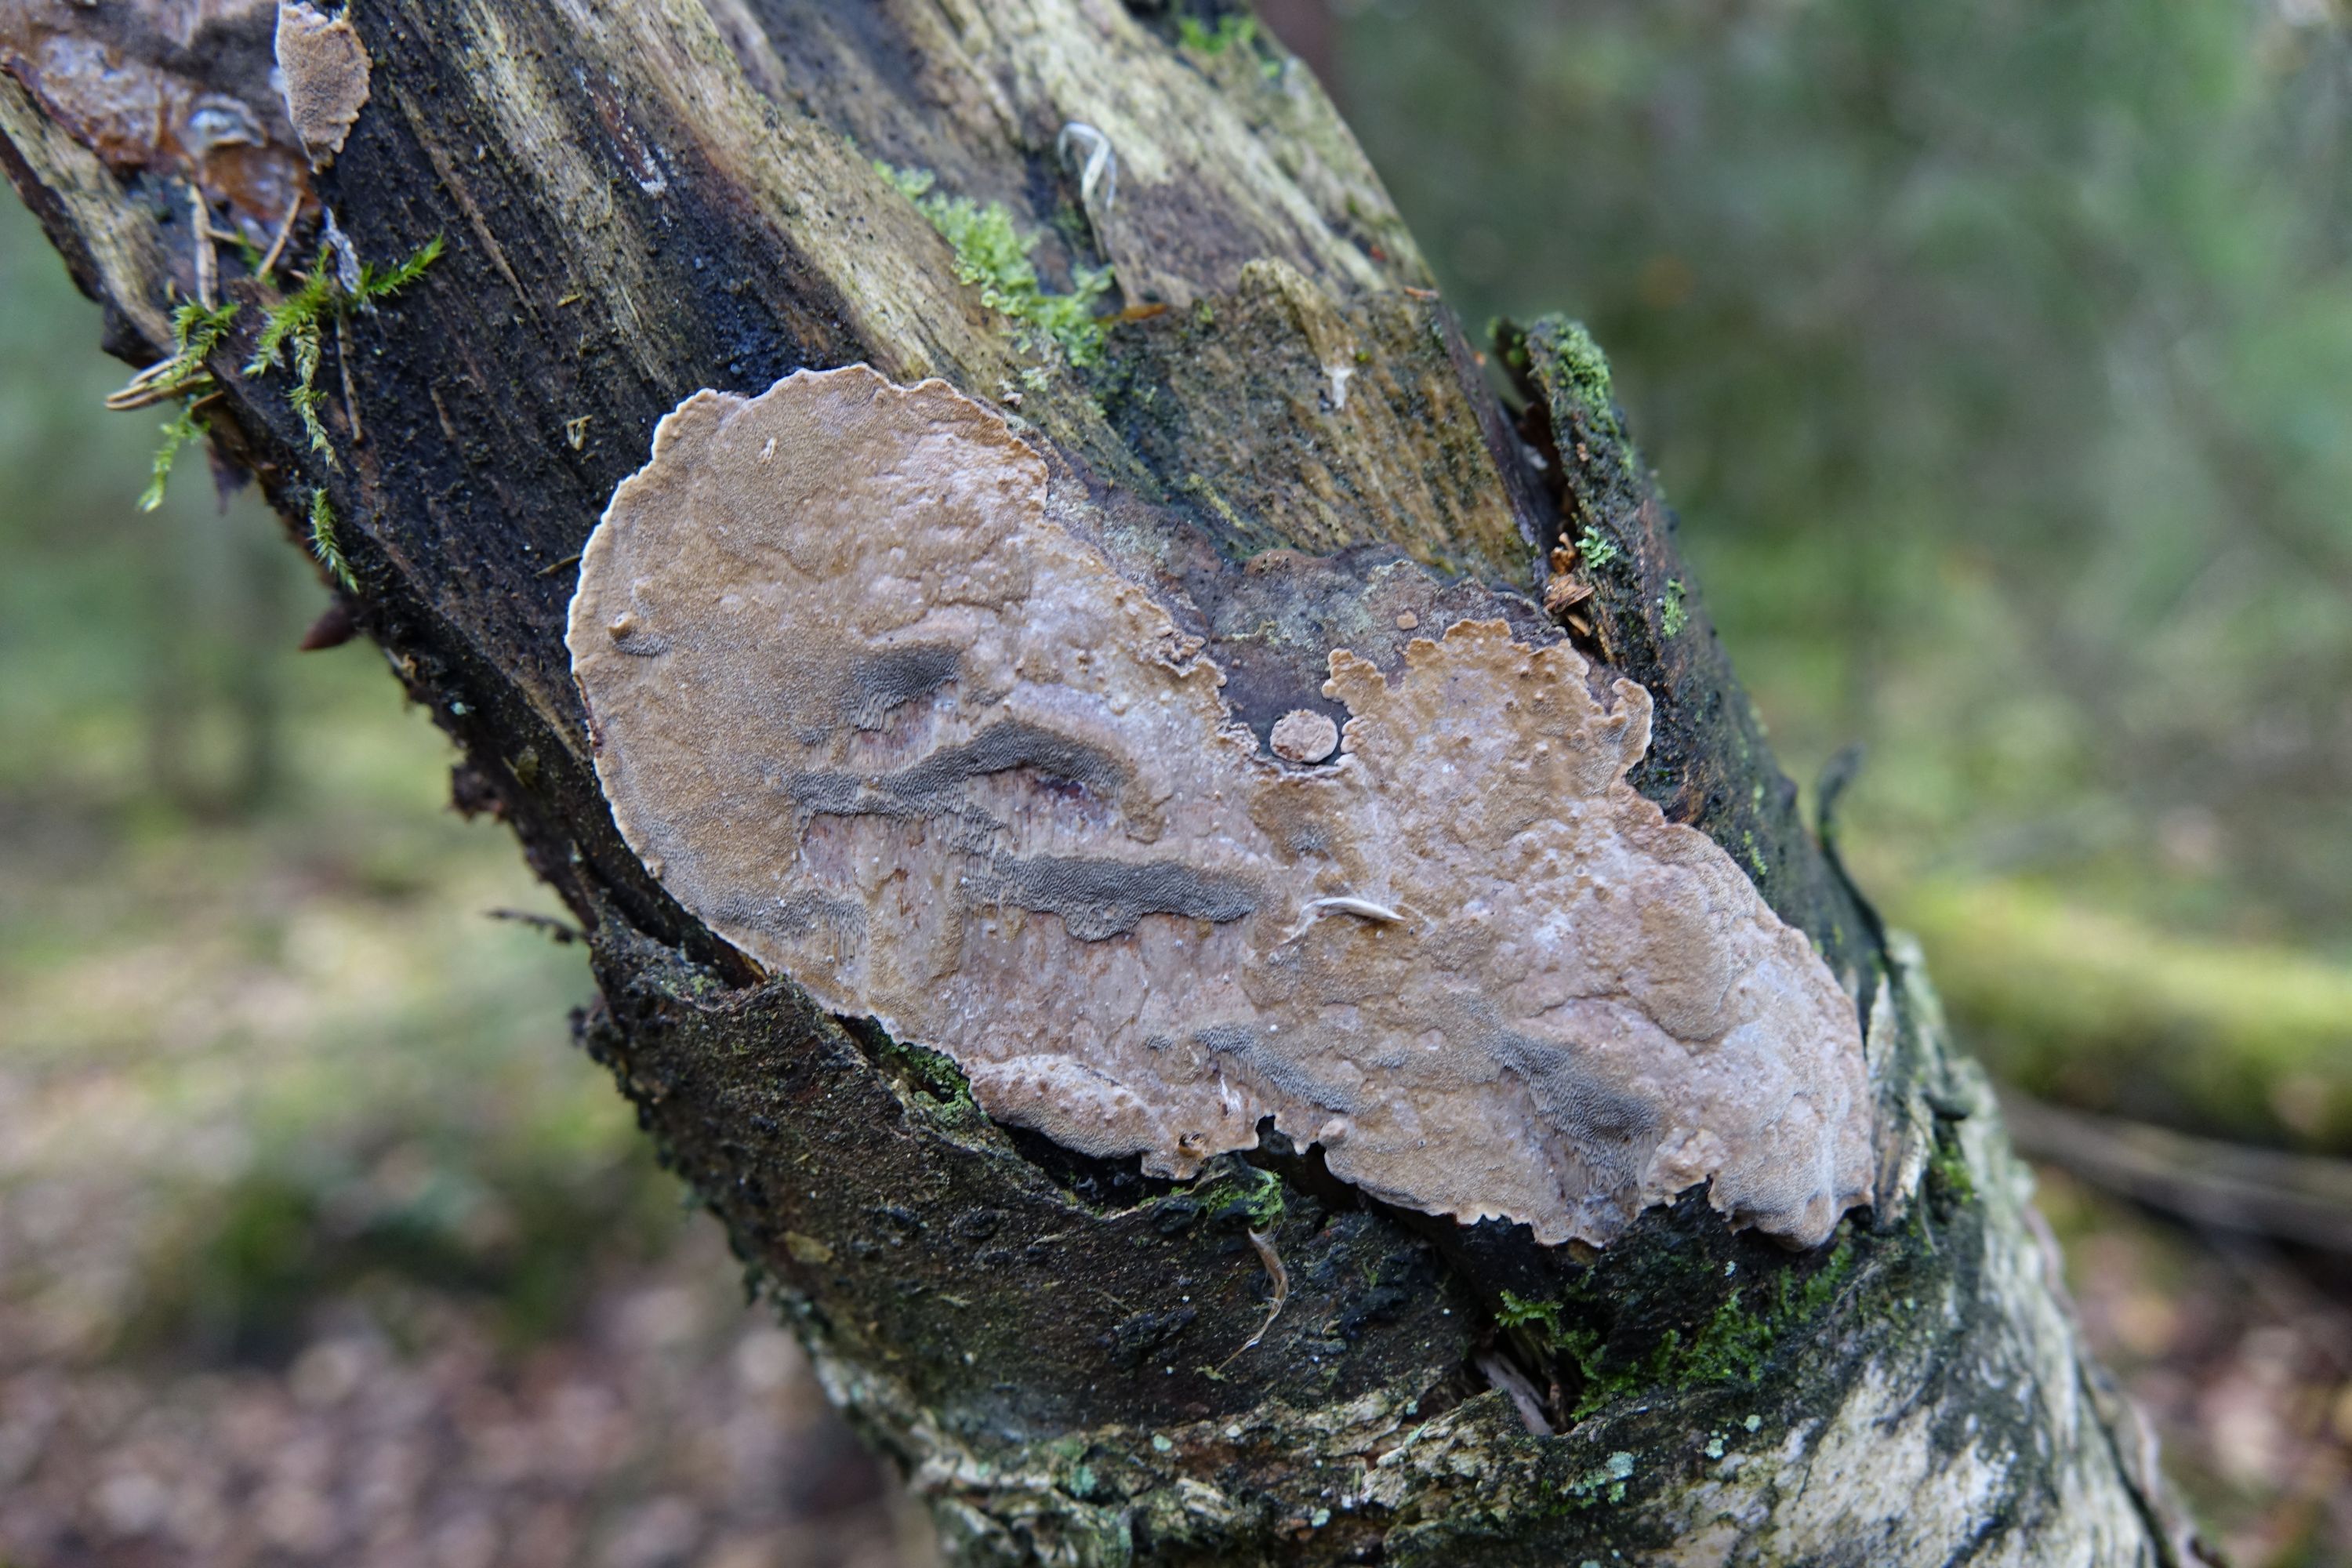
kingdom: Fungi
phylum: Basidiomycota
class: Agaricomycetes
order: Hymenochaetales
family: Hymenochaetaceae
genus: Phellinus
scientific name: Phellinus laevigatus
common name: Smooth bristle bracket
